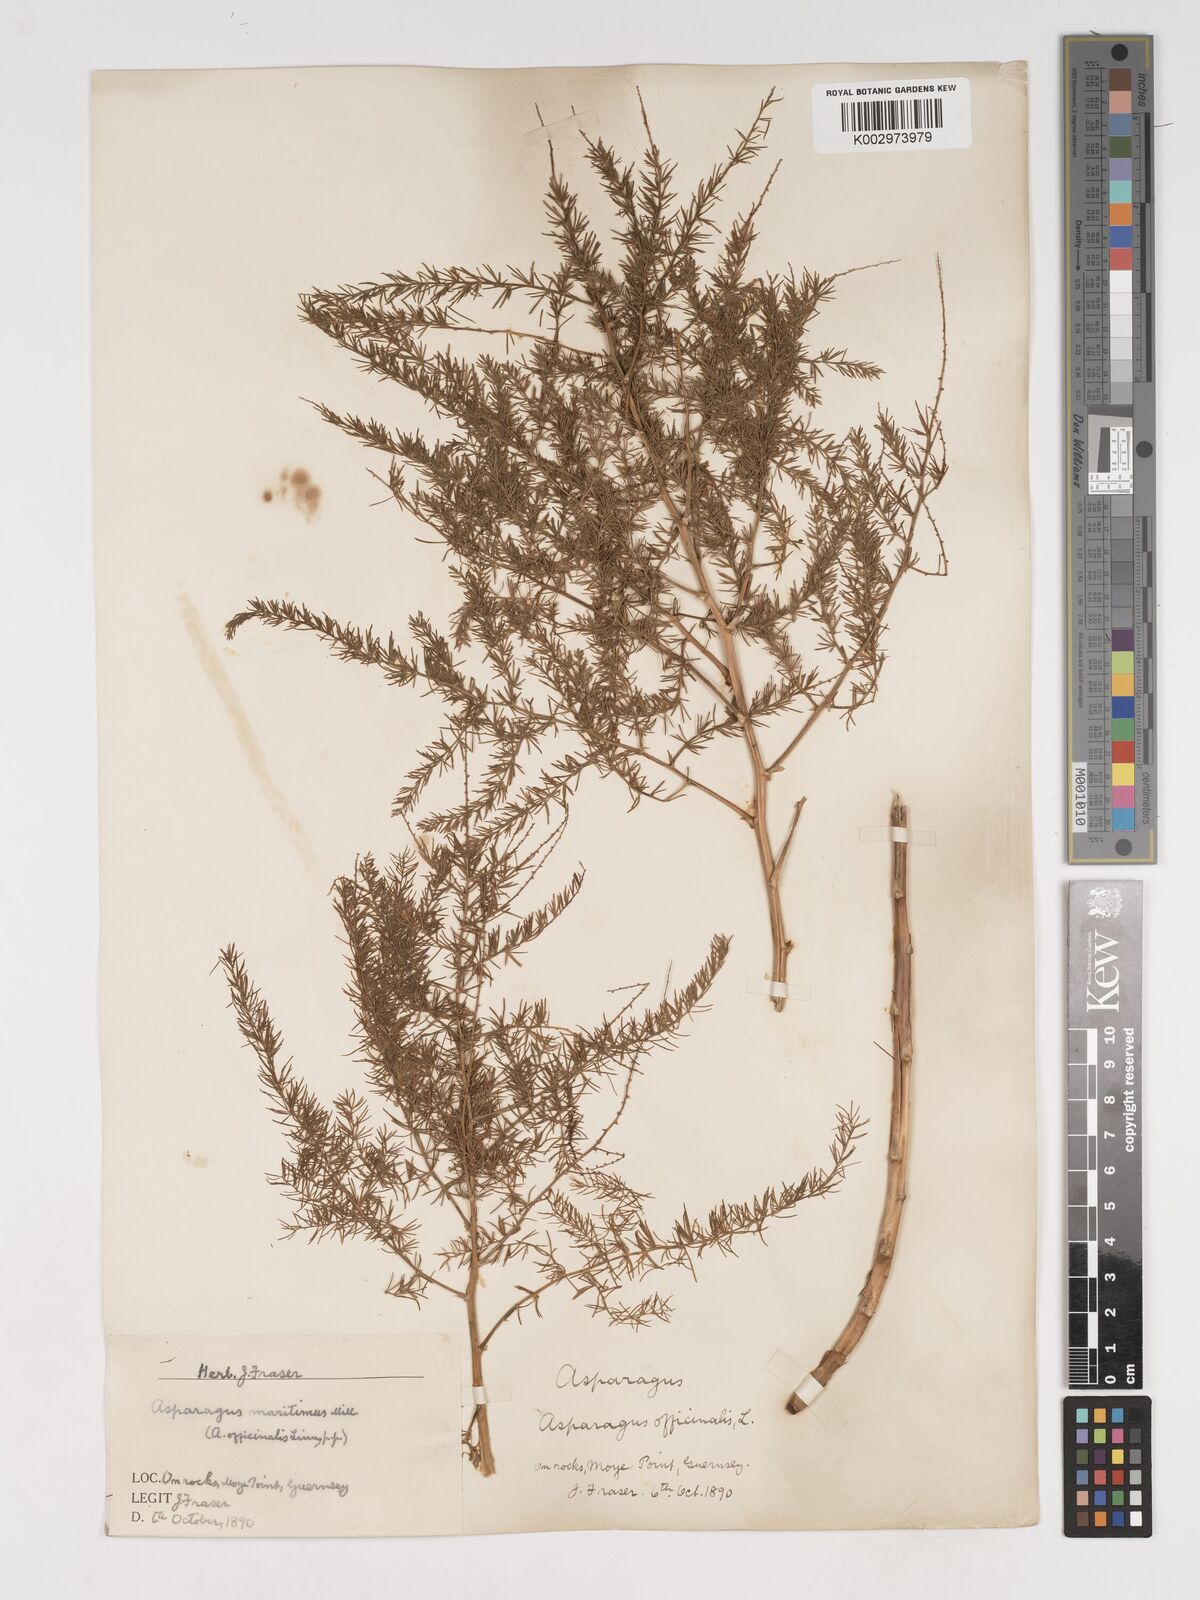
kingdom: Plantae
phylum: Tracheophyta
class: Liliopsida
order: Asparagales
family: Asparagaceae
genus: Asparagus
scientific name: Asparagus maritimus
